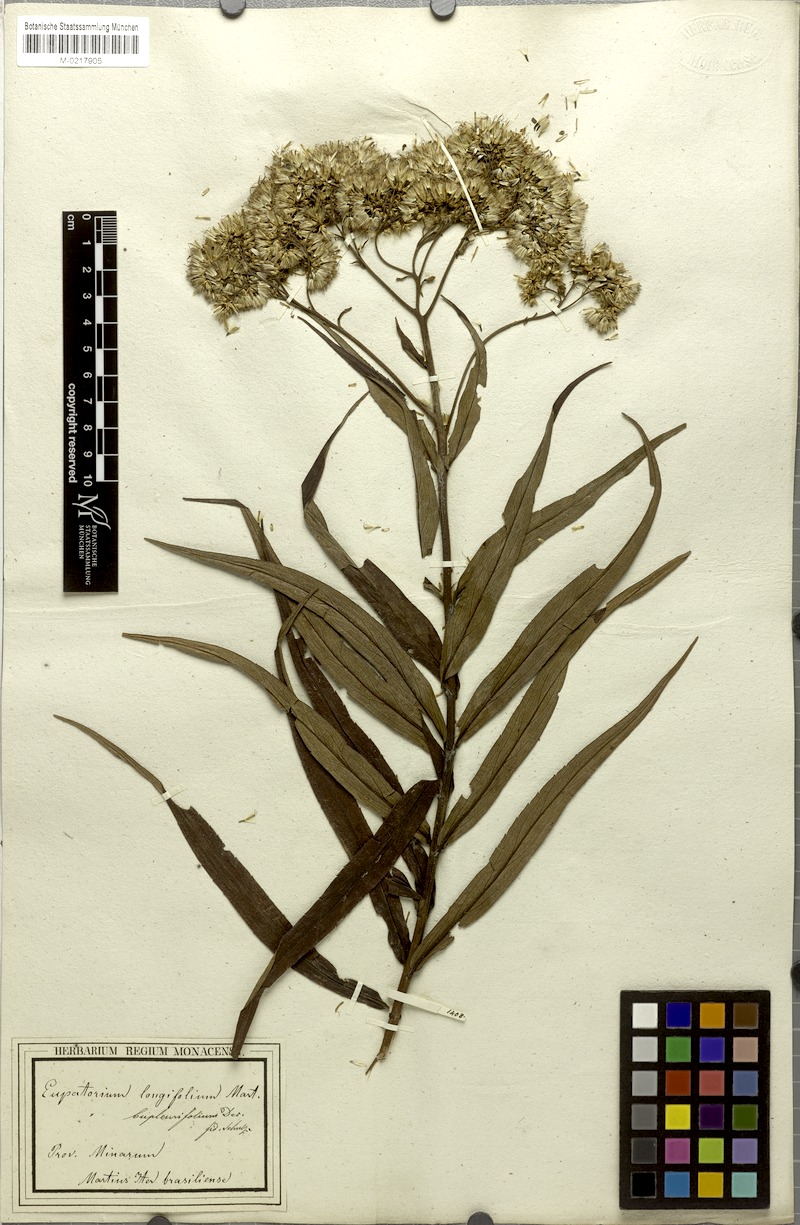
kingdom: Plantae
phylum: Tracheophyta
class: Magnoliopsida
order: Asterales
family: Asteraceae
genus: Campovassouria
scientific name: Campovassouria cruciata
